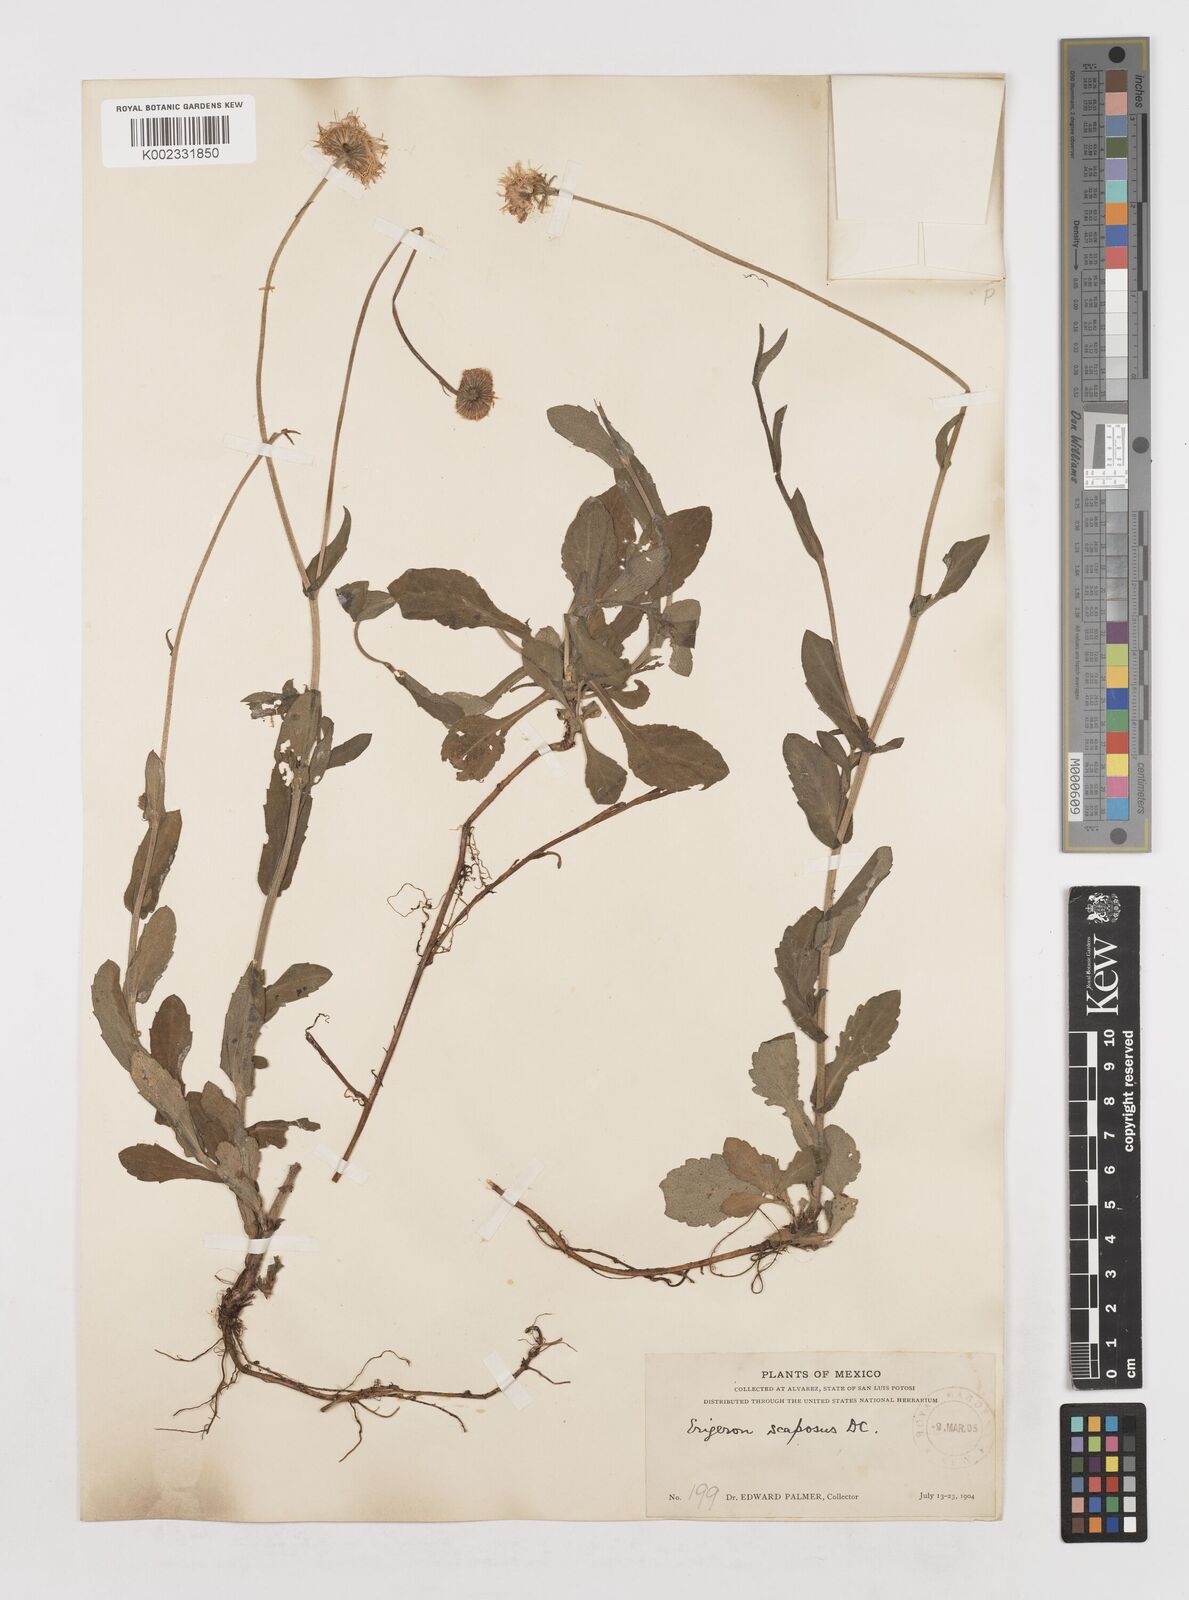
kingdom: Plantae
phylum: Tracheophyta
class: Magnoliopsida
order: Asterales
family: Asteraceae
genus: Erigeron
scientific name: Erigeron longipes
